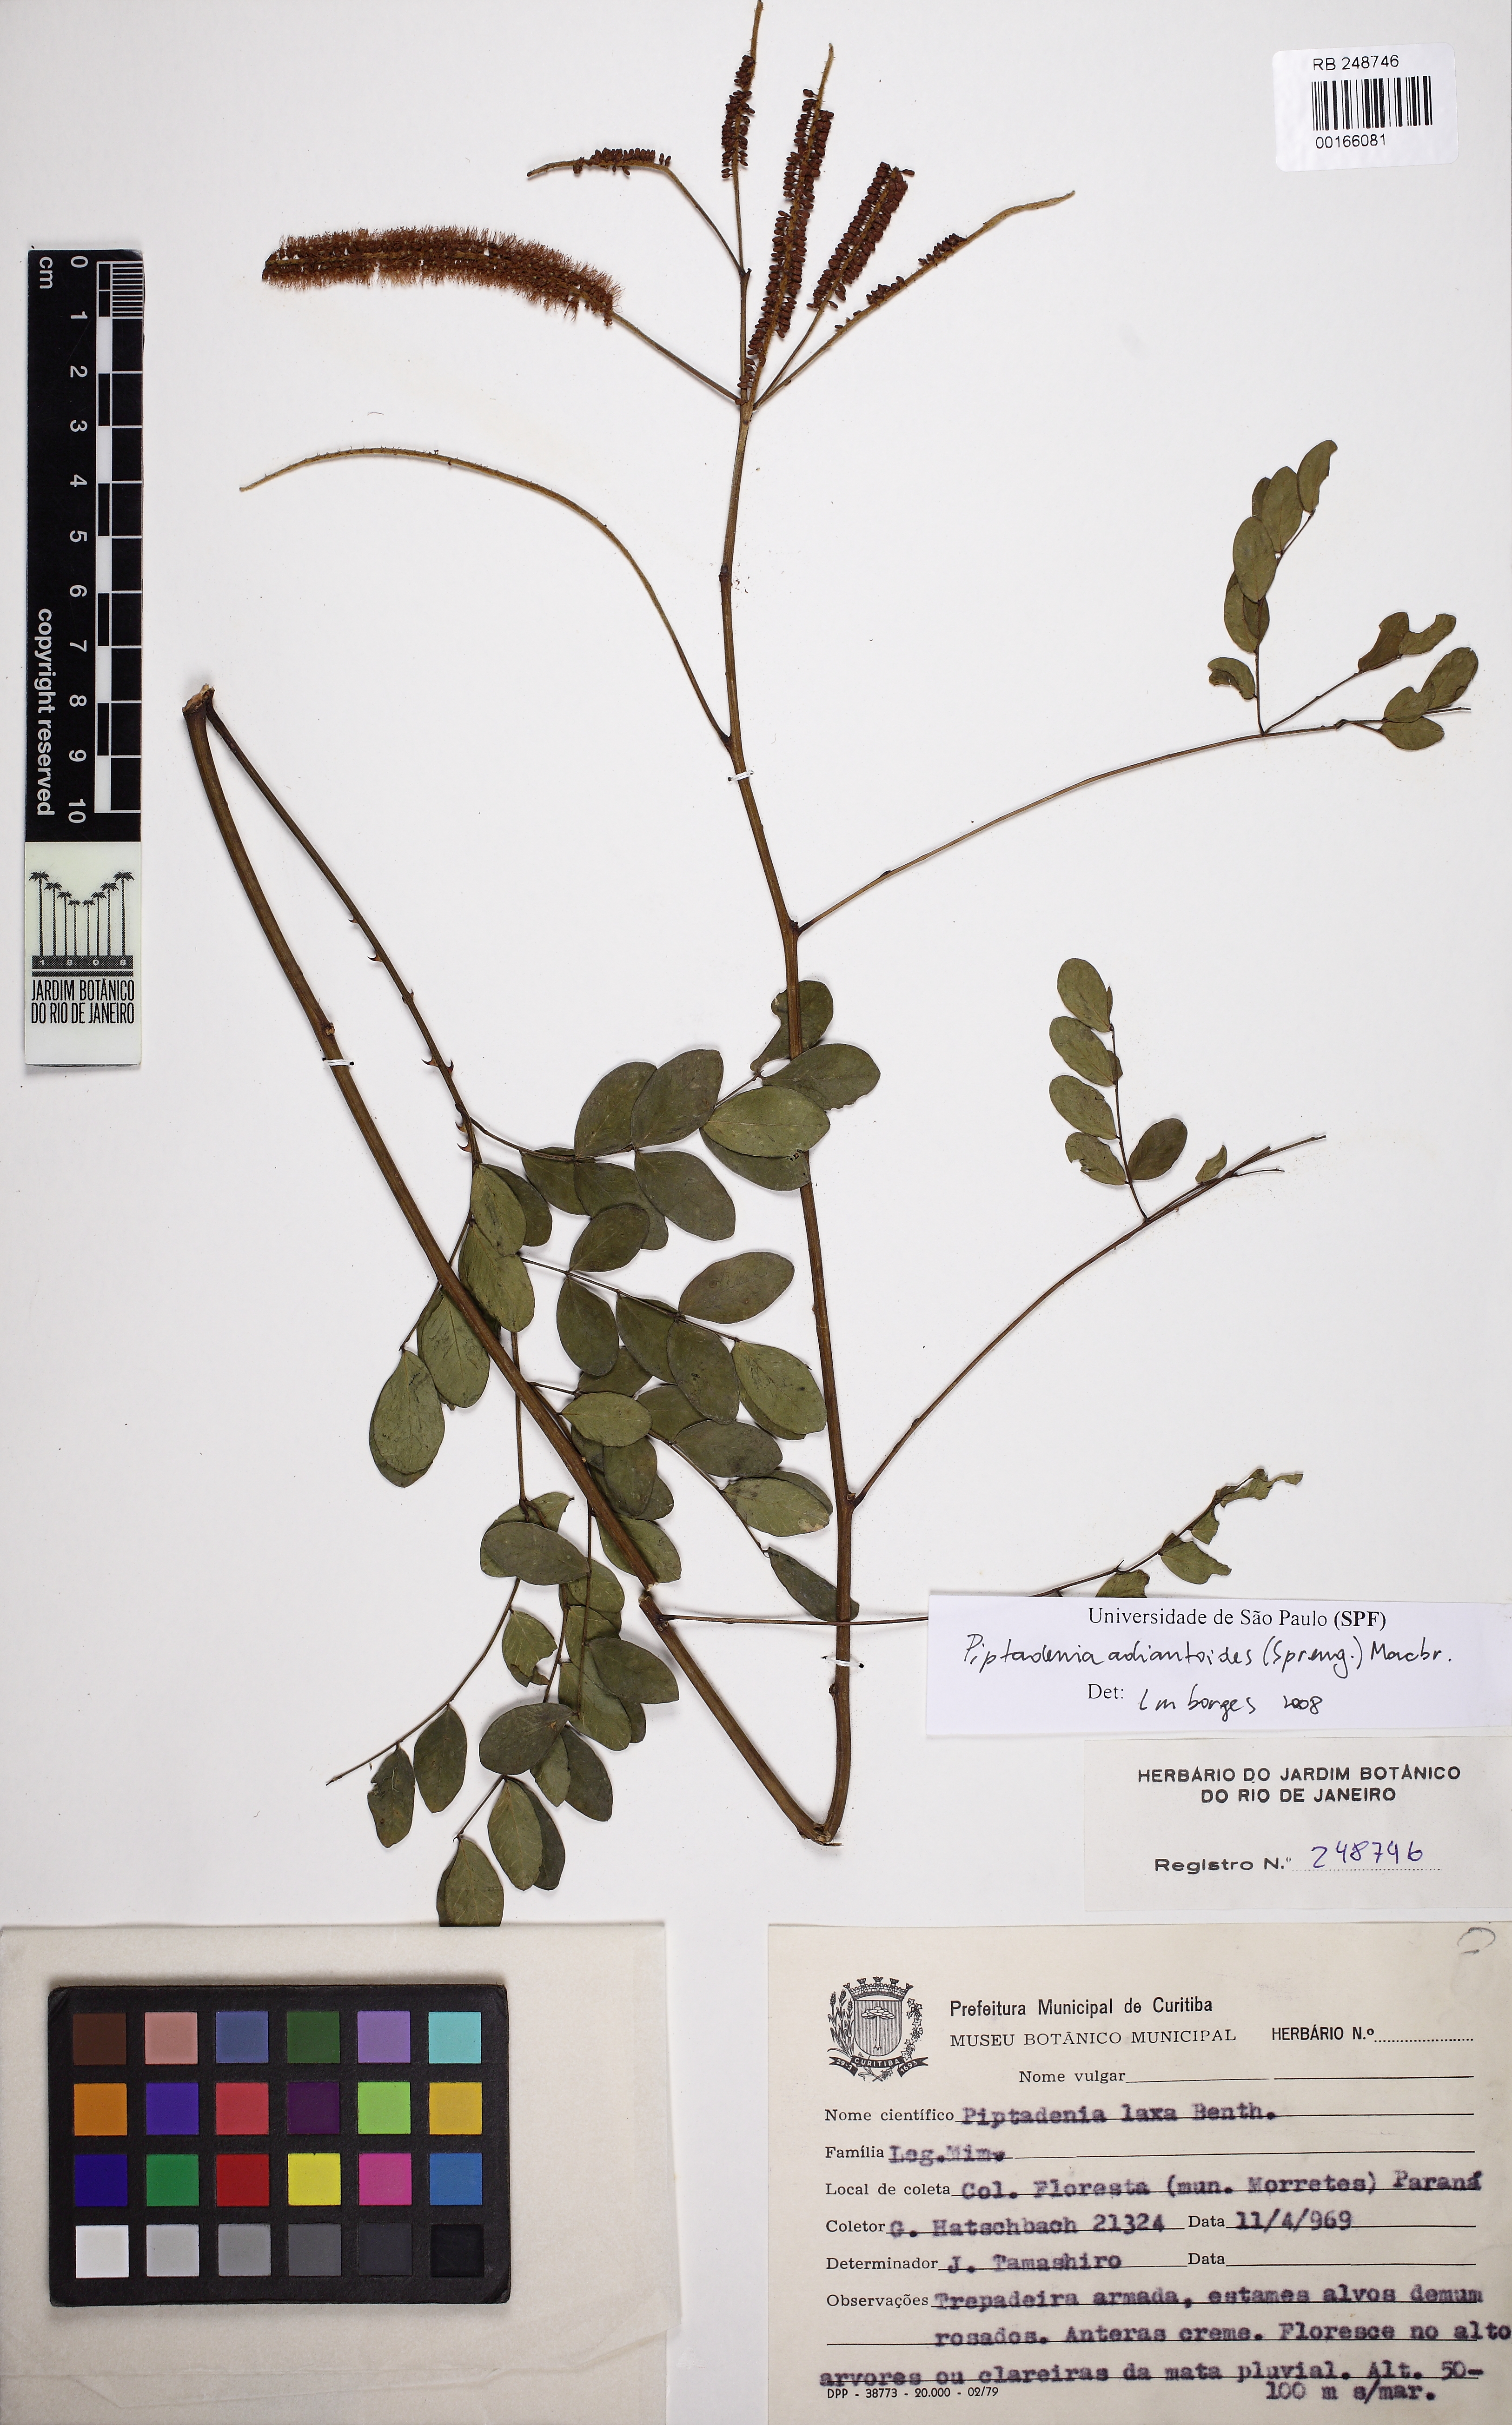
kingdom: Plantae
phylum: Tracheophyta
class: Magnoliopsida
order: Fabales
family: Fabaceae
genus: Piptadenia
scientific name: Piptadenia adiantoides
